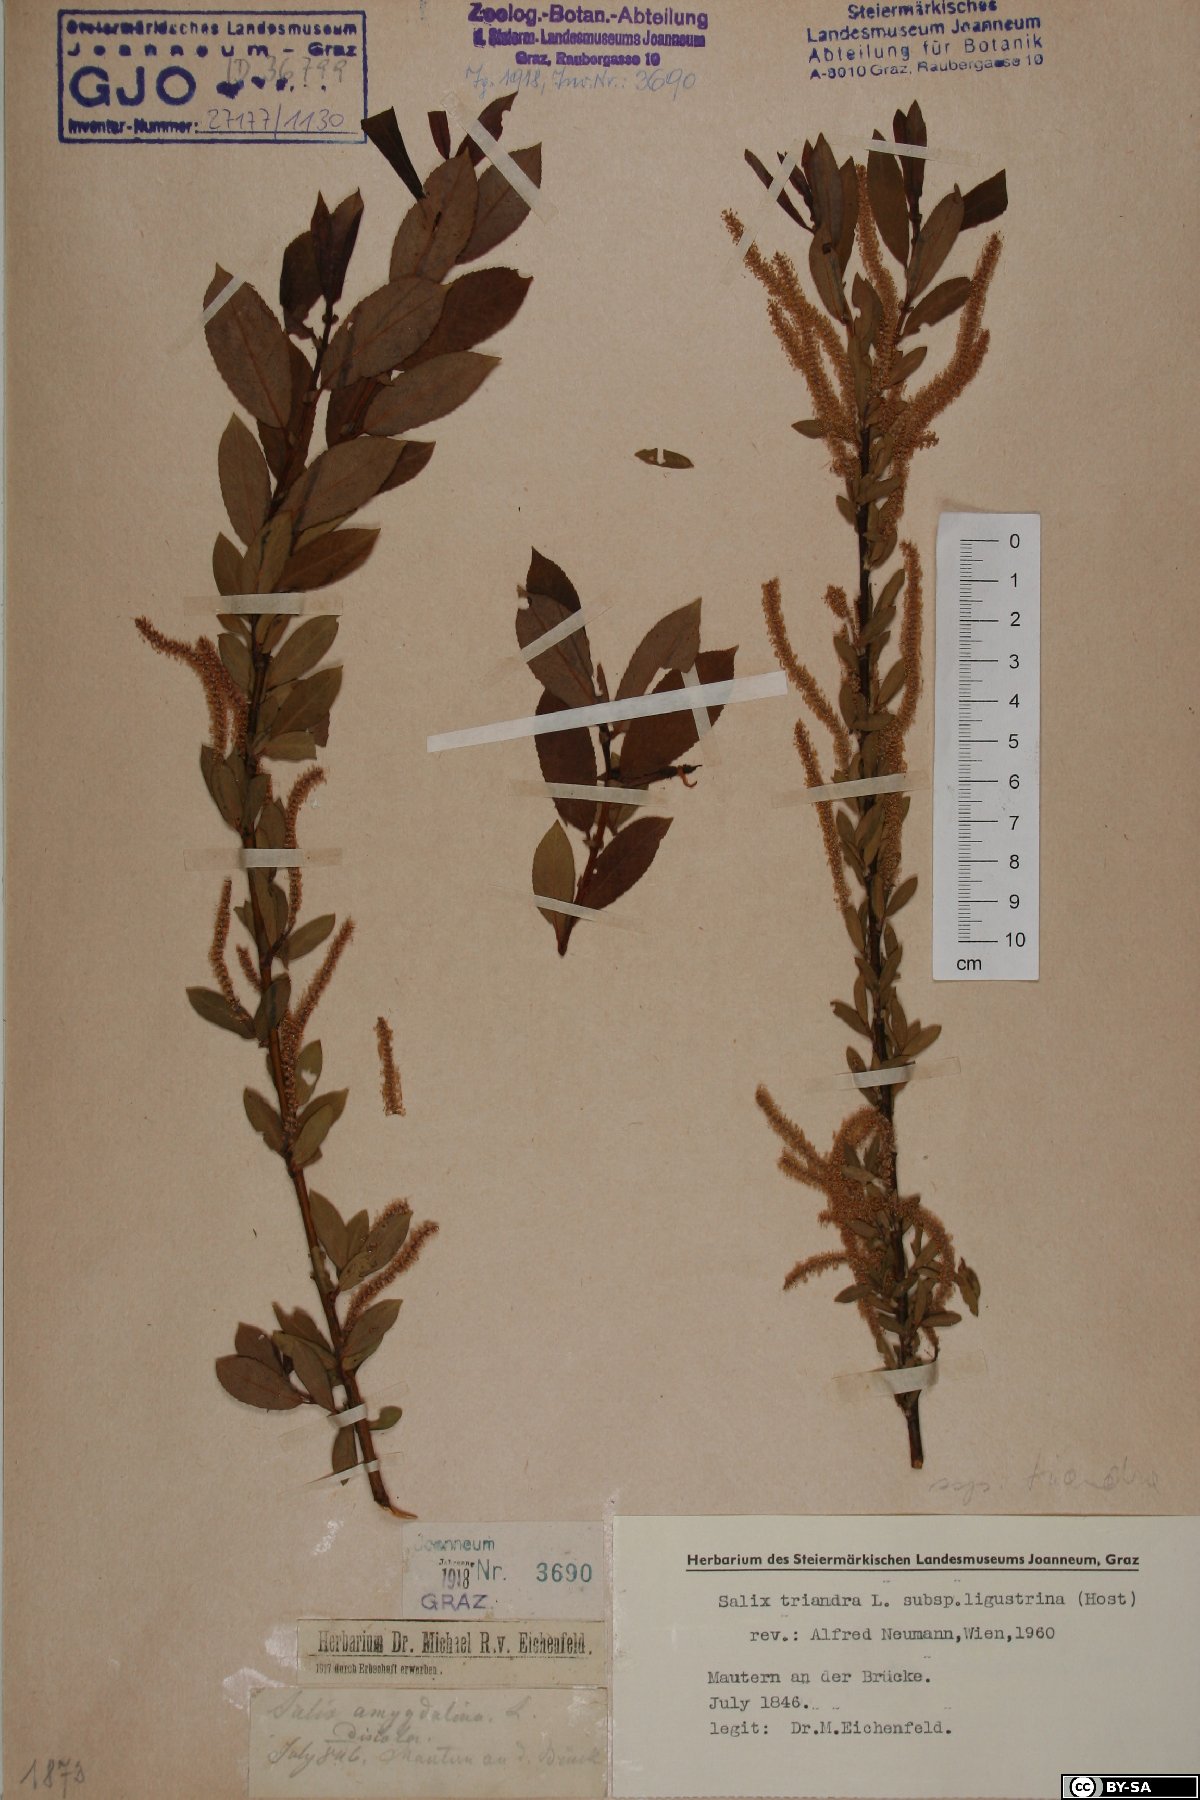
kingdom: Plantae
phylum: Tracheophyta
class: Magnoliopsida
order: Malpighiales
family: Salicaceae
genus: Salix
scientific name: Salix triandra
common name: Almond willow
